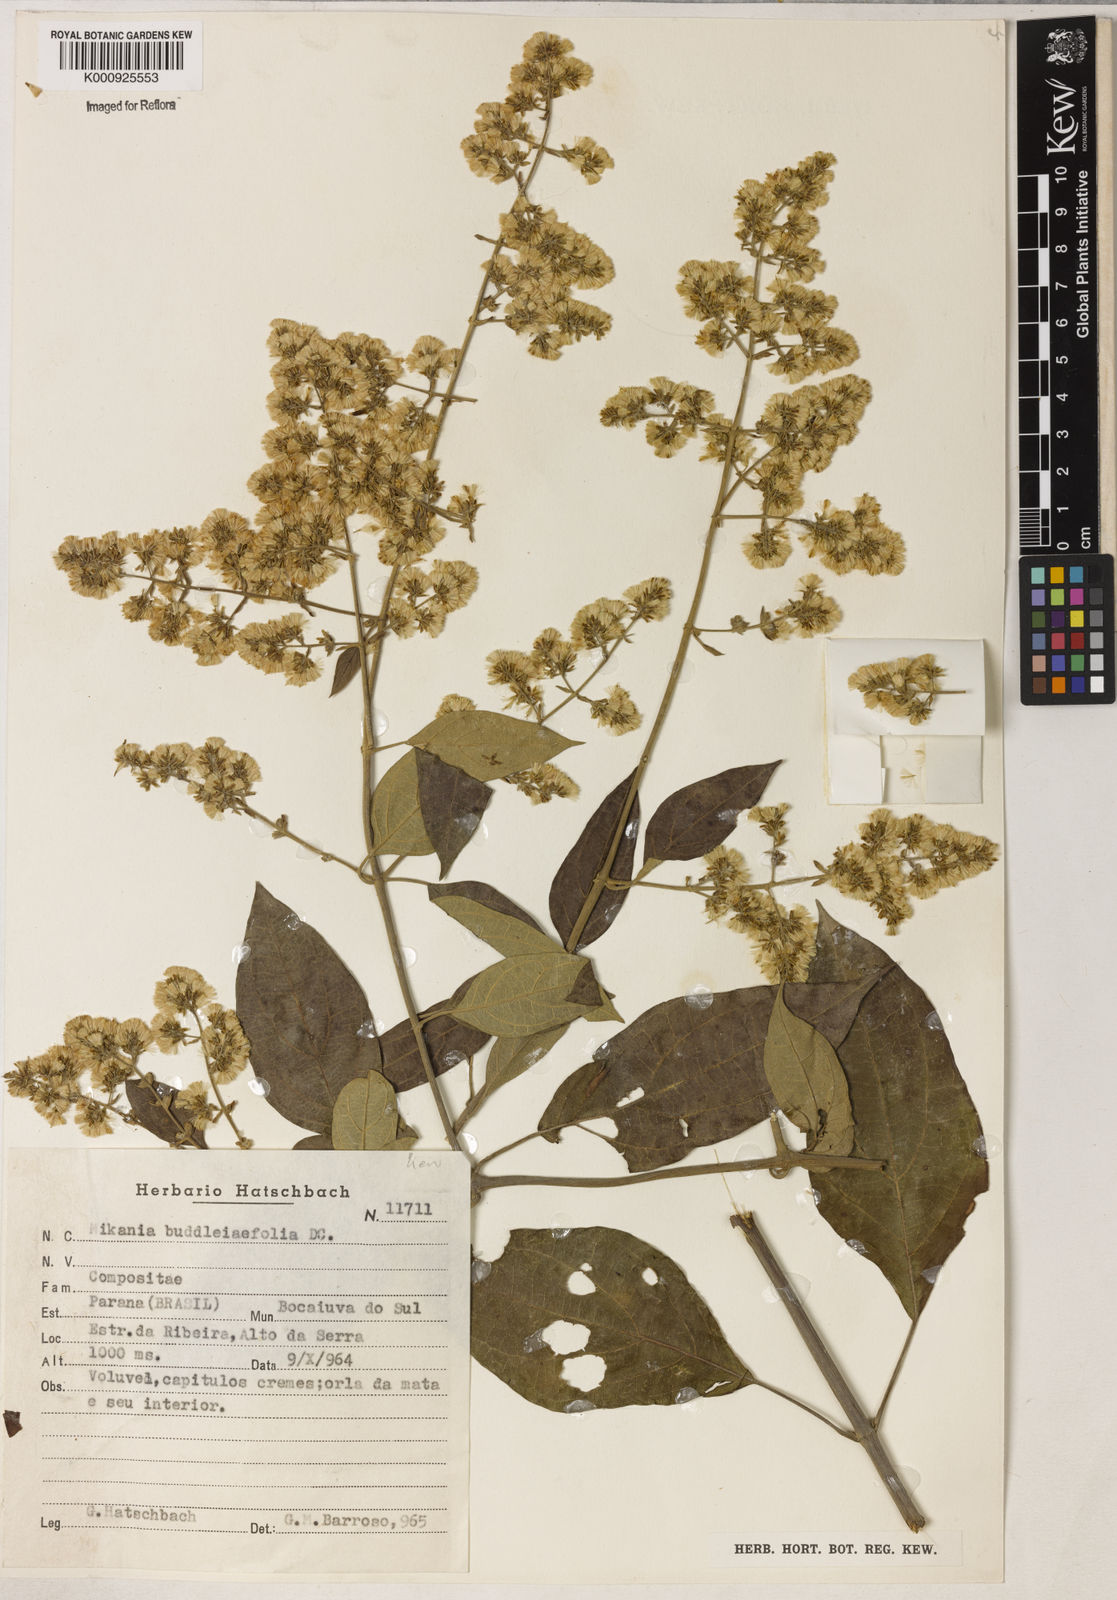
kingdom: Plantae
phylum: Tracheophyta
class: Magnoliopsida
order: Asterales
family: Asteraceae
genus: Mikania
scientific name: Mikania buddlejifolia
